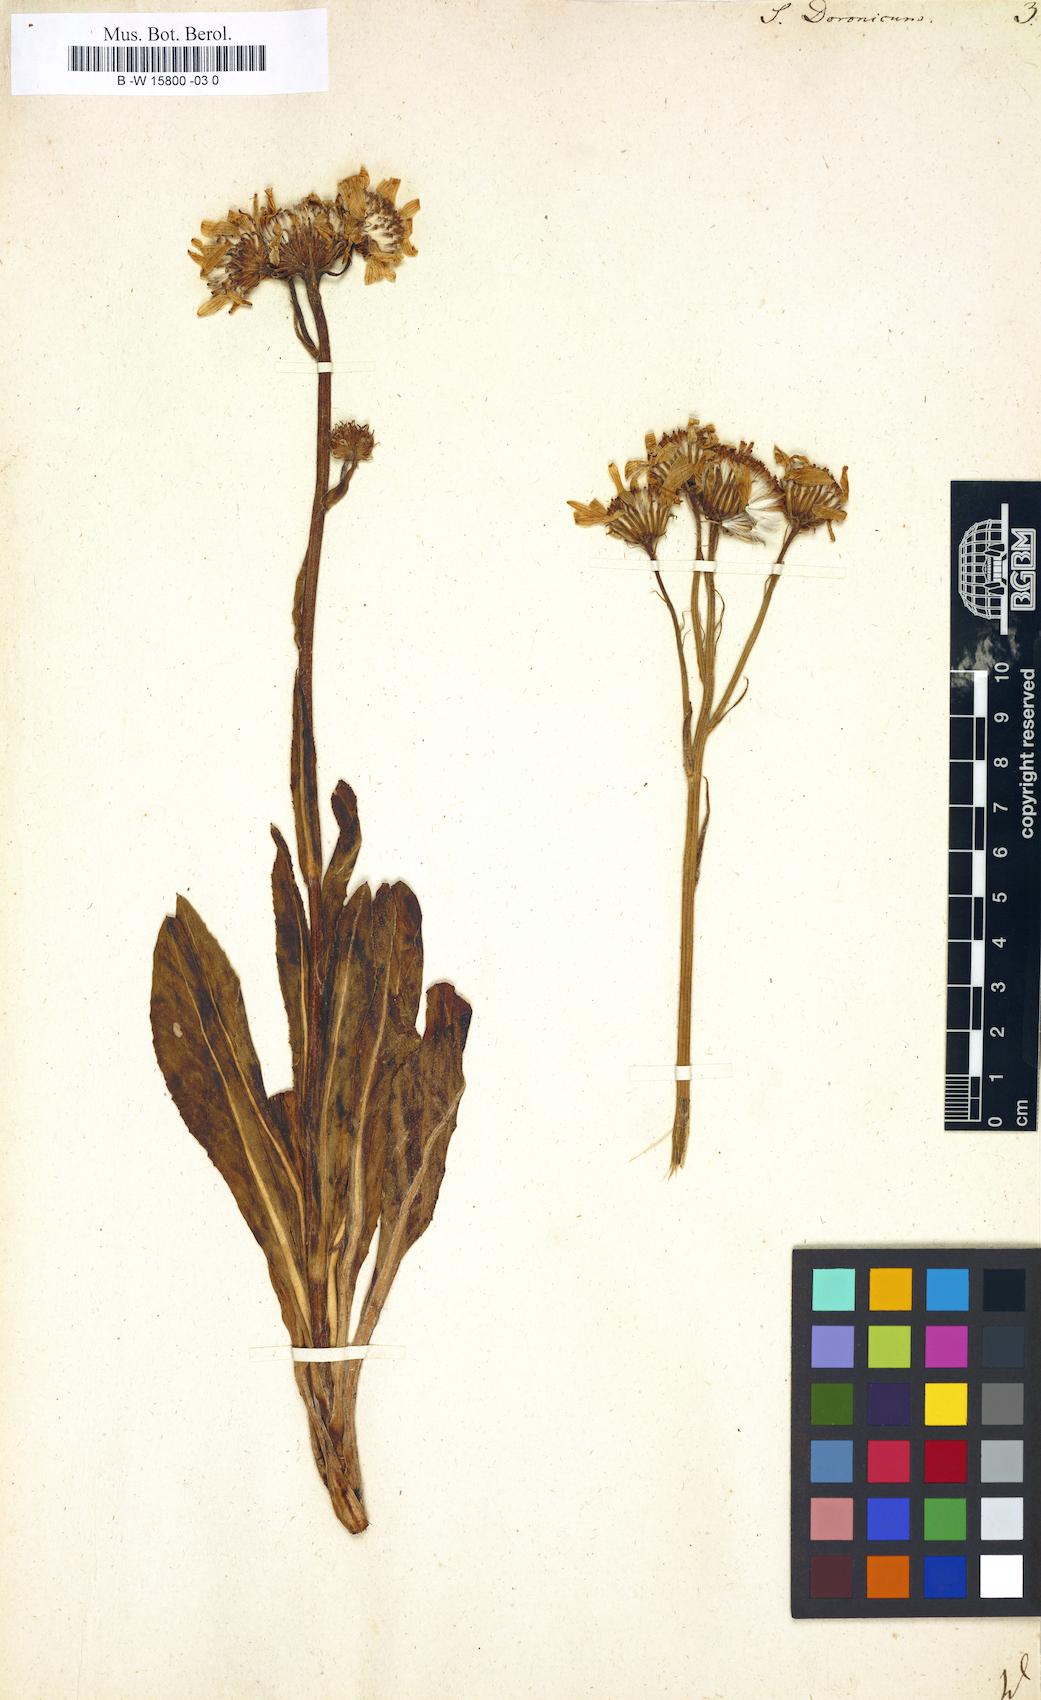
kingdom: Plantae
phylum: Tracheophyta
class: Magnoliopsida
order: Asterales
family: Asteraceae
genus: Senecio
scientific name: Senecio doronicum
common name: Chamois ragwort
